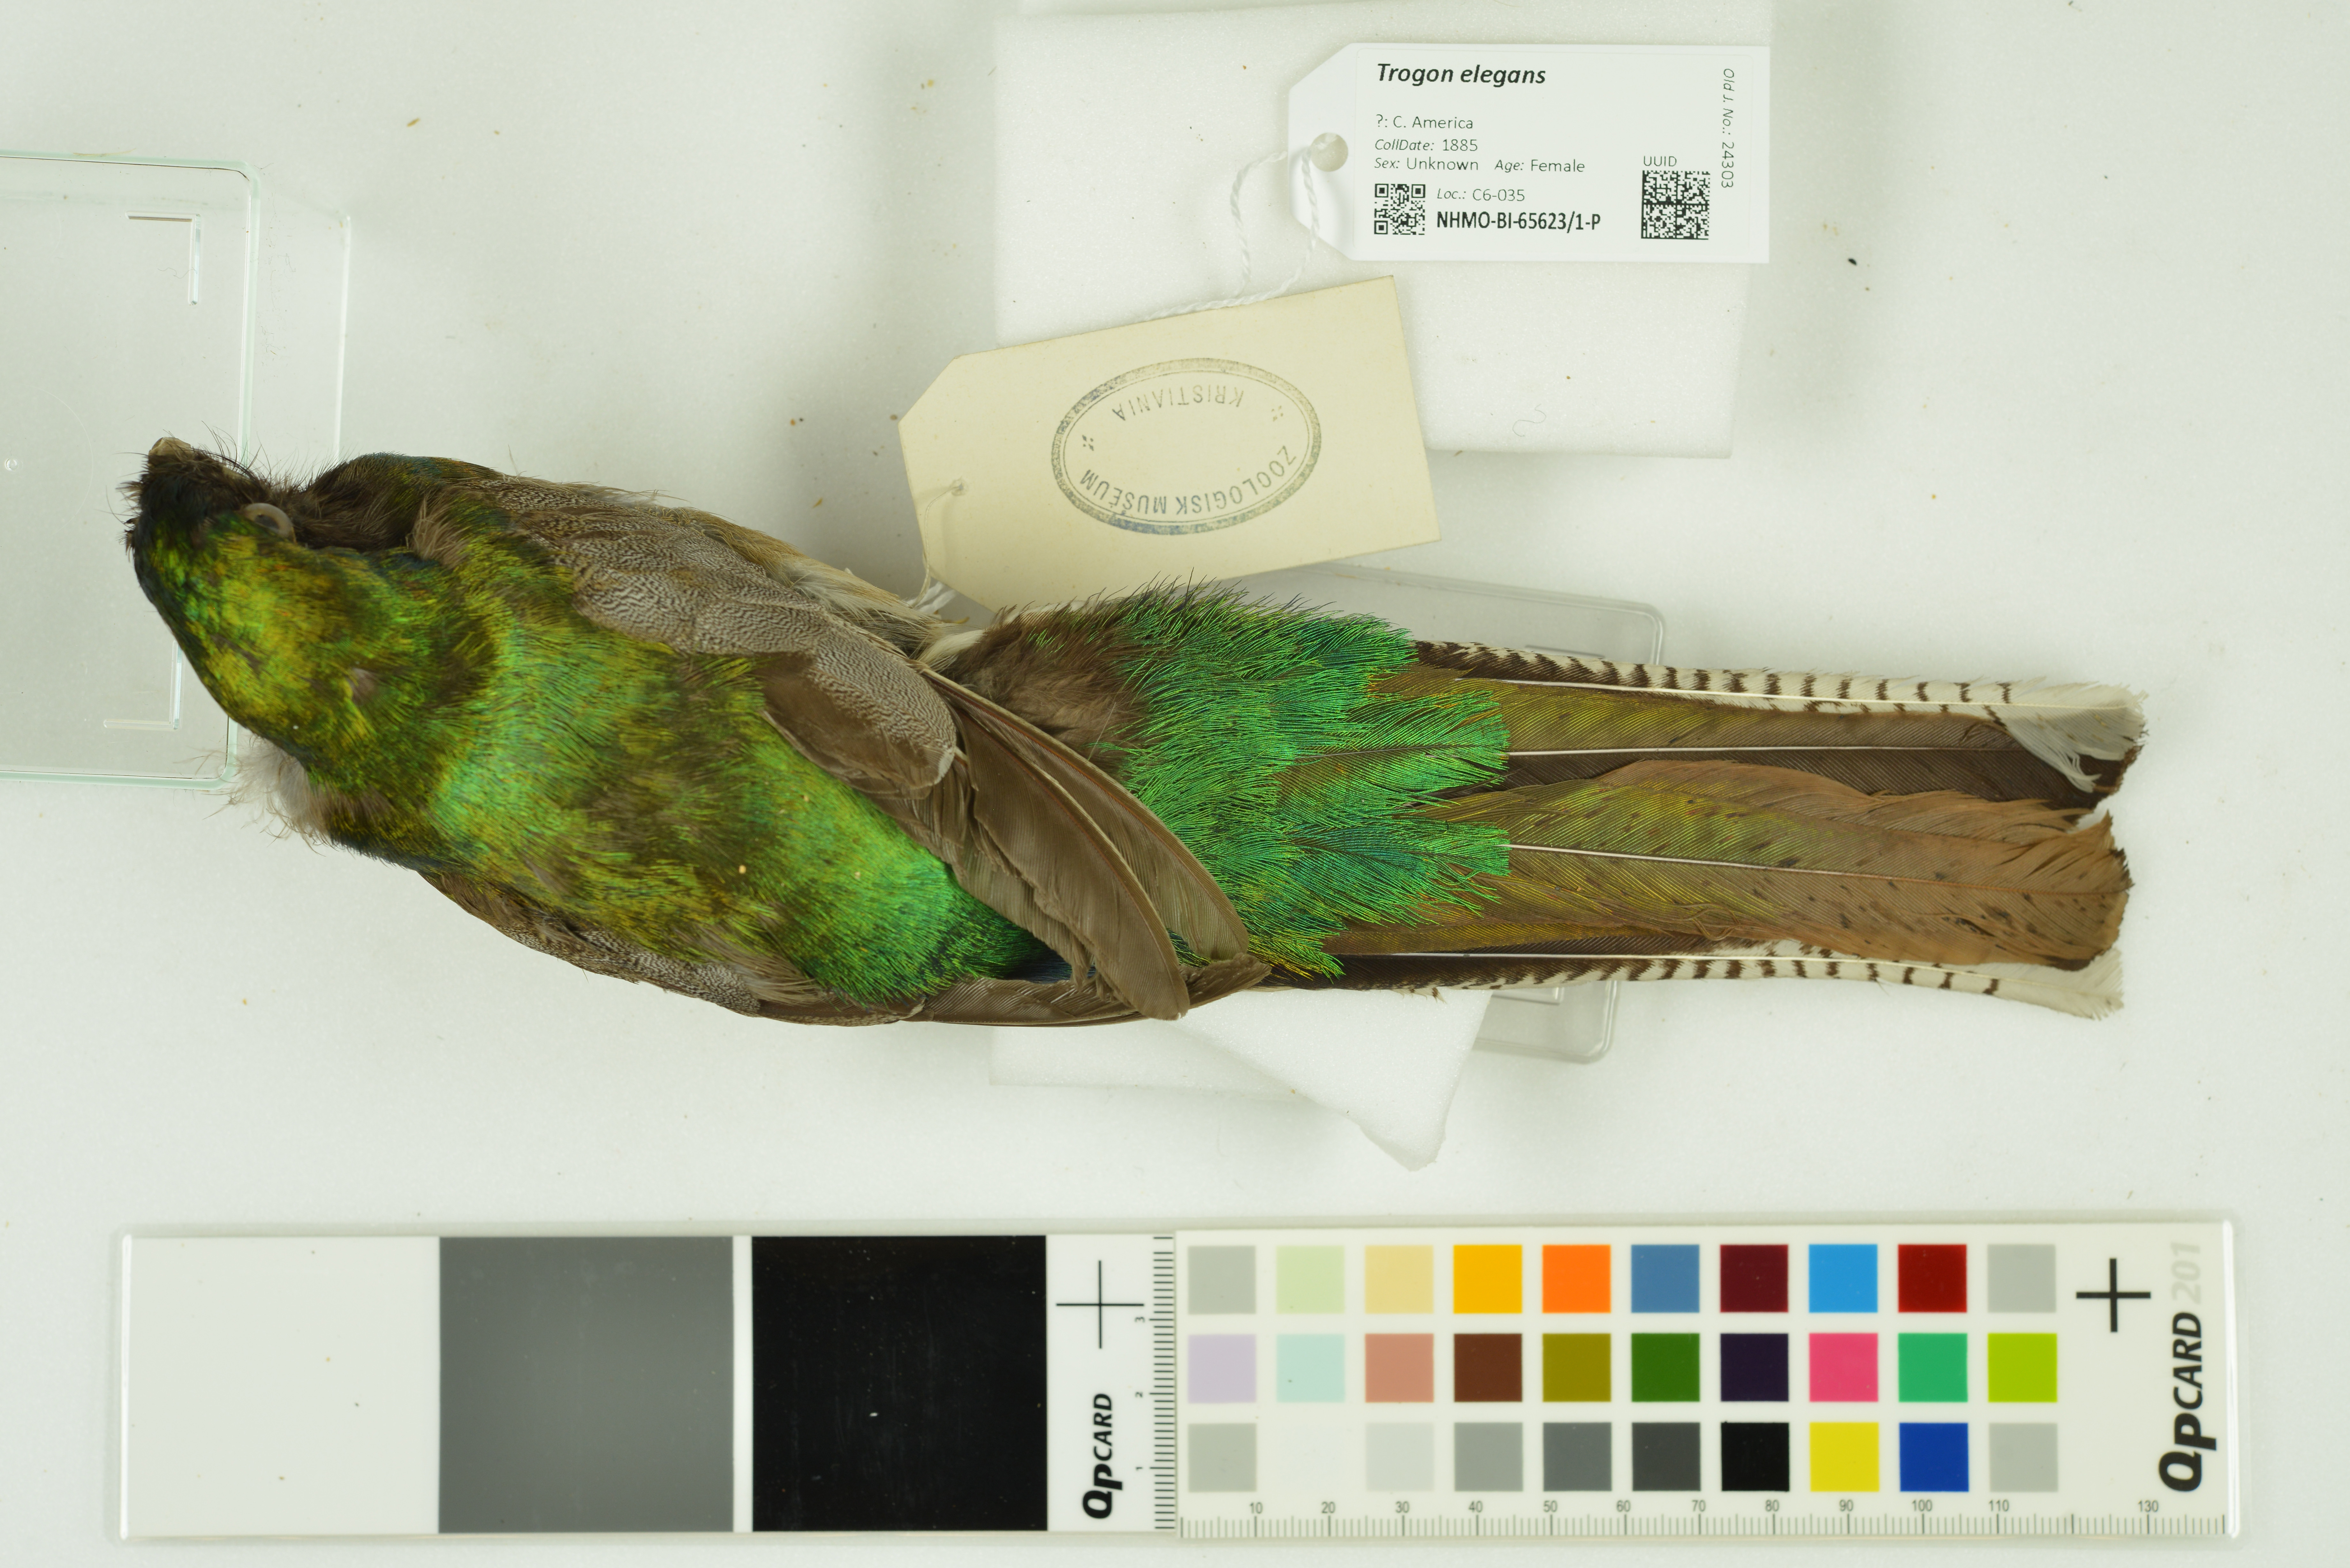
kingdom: Animalia
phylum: Chordata
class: Aves
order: Trogoniformes
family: Trogonidae
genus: Trogon
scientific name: Trogon elegans
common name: Elegant trogon
